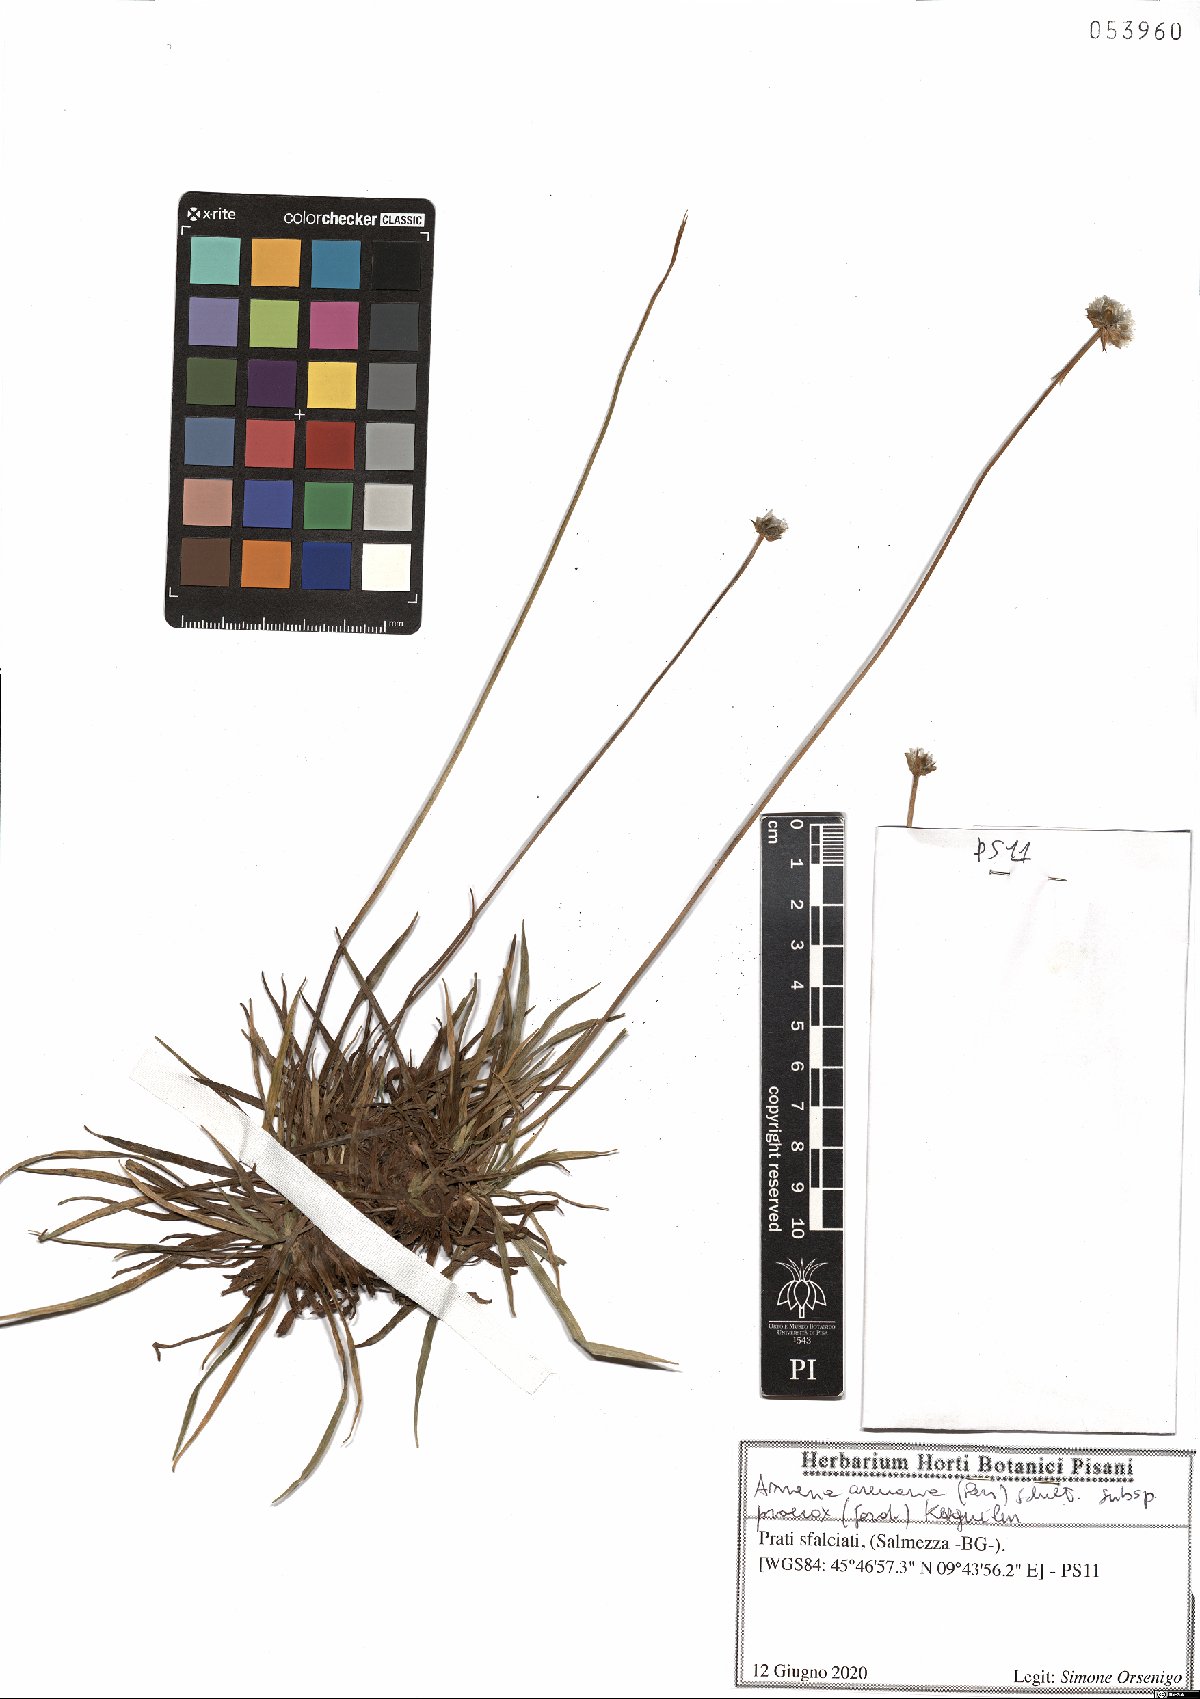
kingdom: Plantae
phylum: Tracheophyta
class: Magnoliopsida
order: Caryophyllales
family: Plumbaginaceae
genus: Armeria
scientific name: Armeria arenaria
